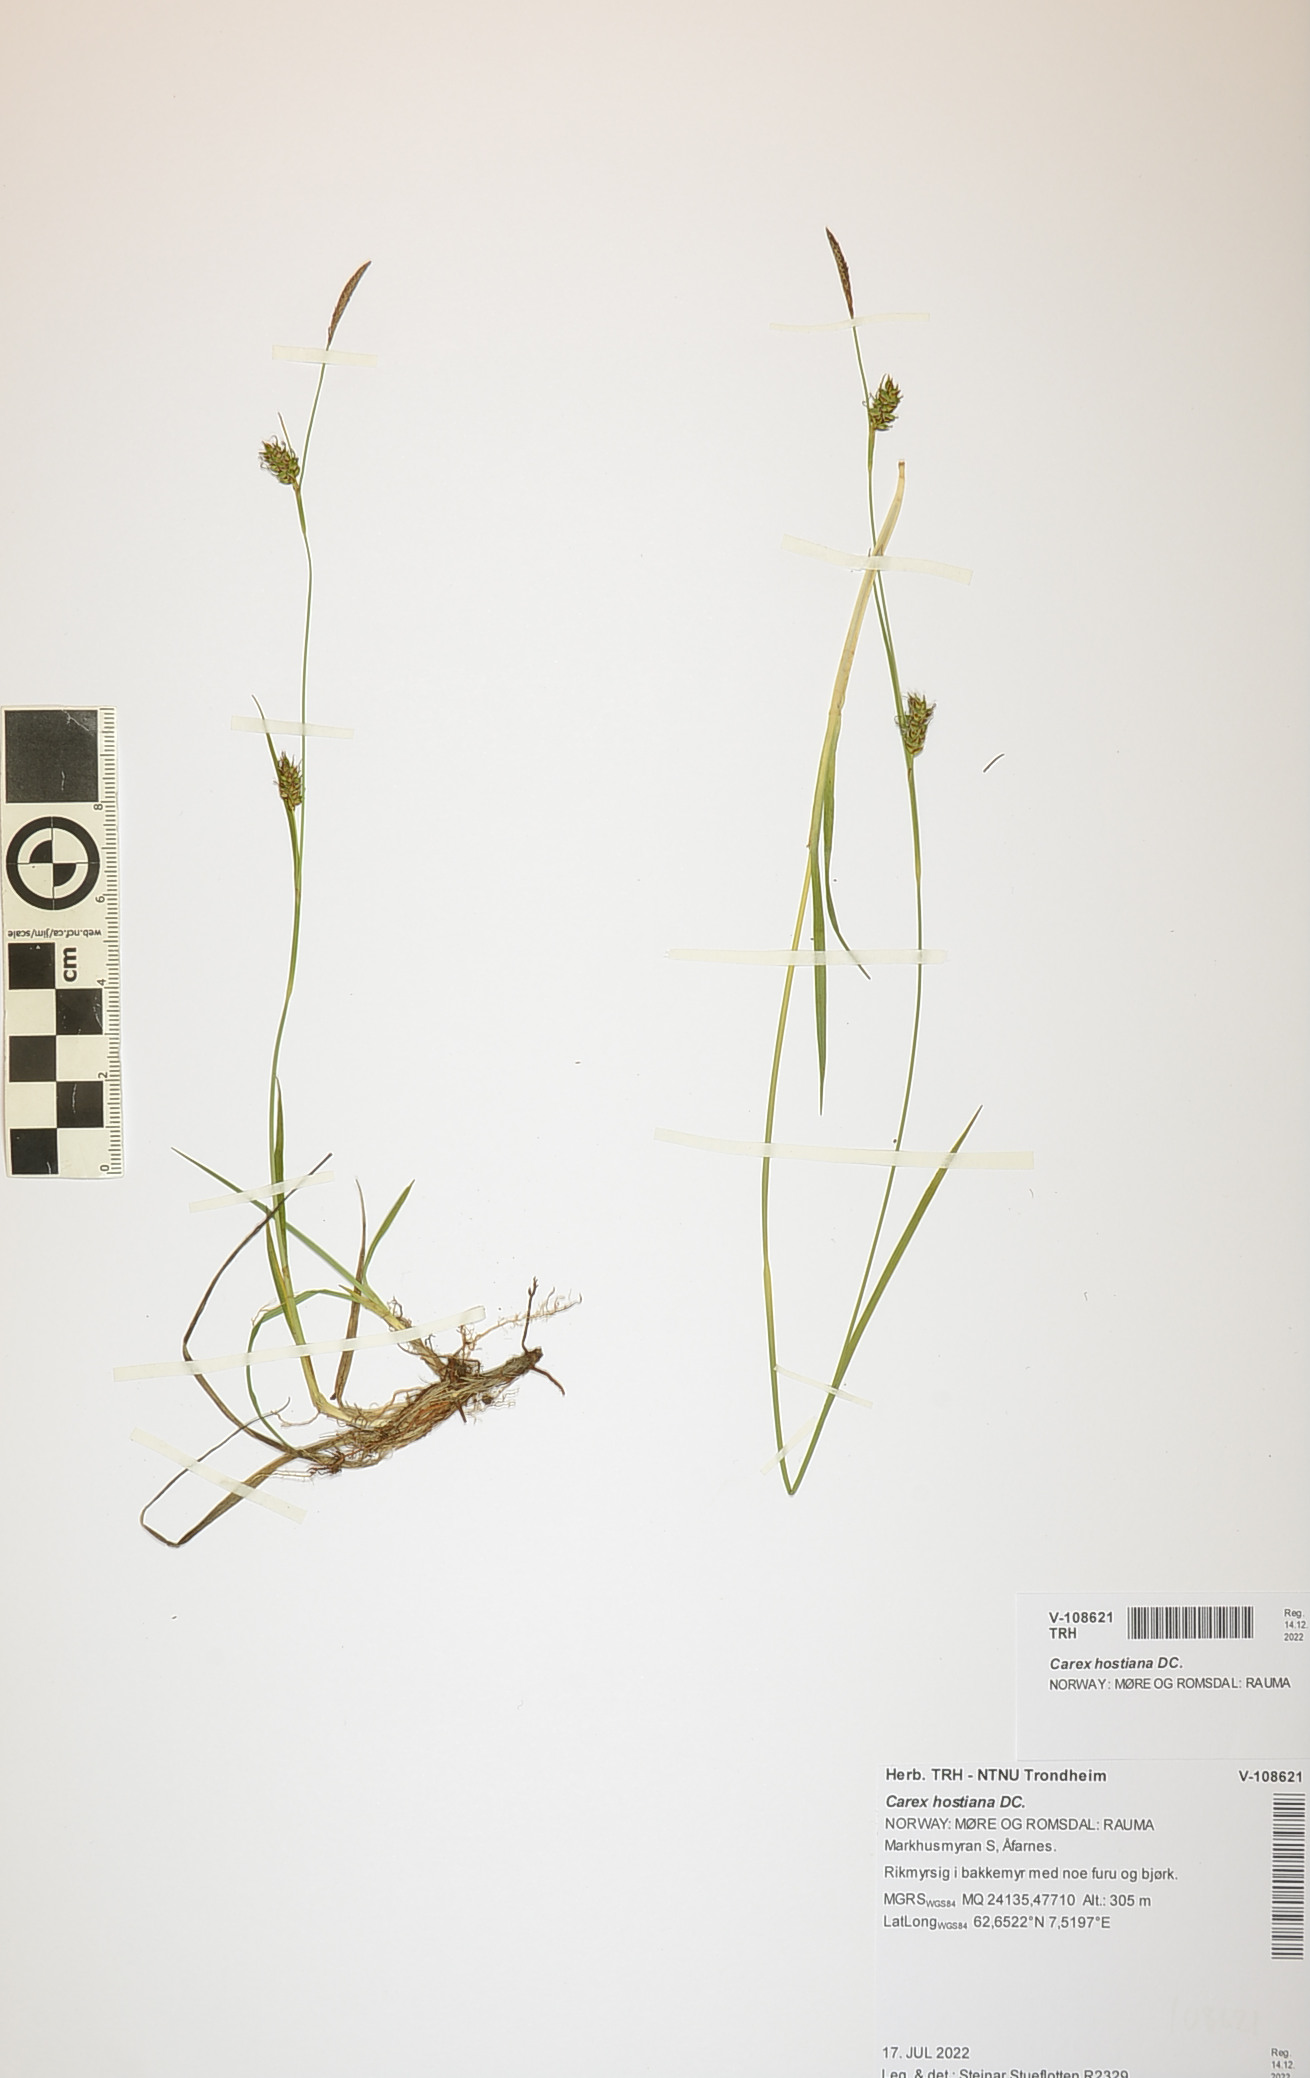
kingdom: Plantae
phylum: Tracheophyta
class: Liliopsida
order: Poales
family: Cyperaceae
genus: Carex
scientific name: Carex hostiana
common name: Tawny sedge
